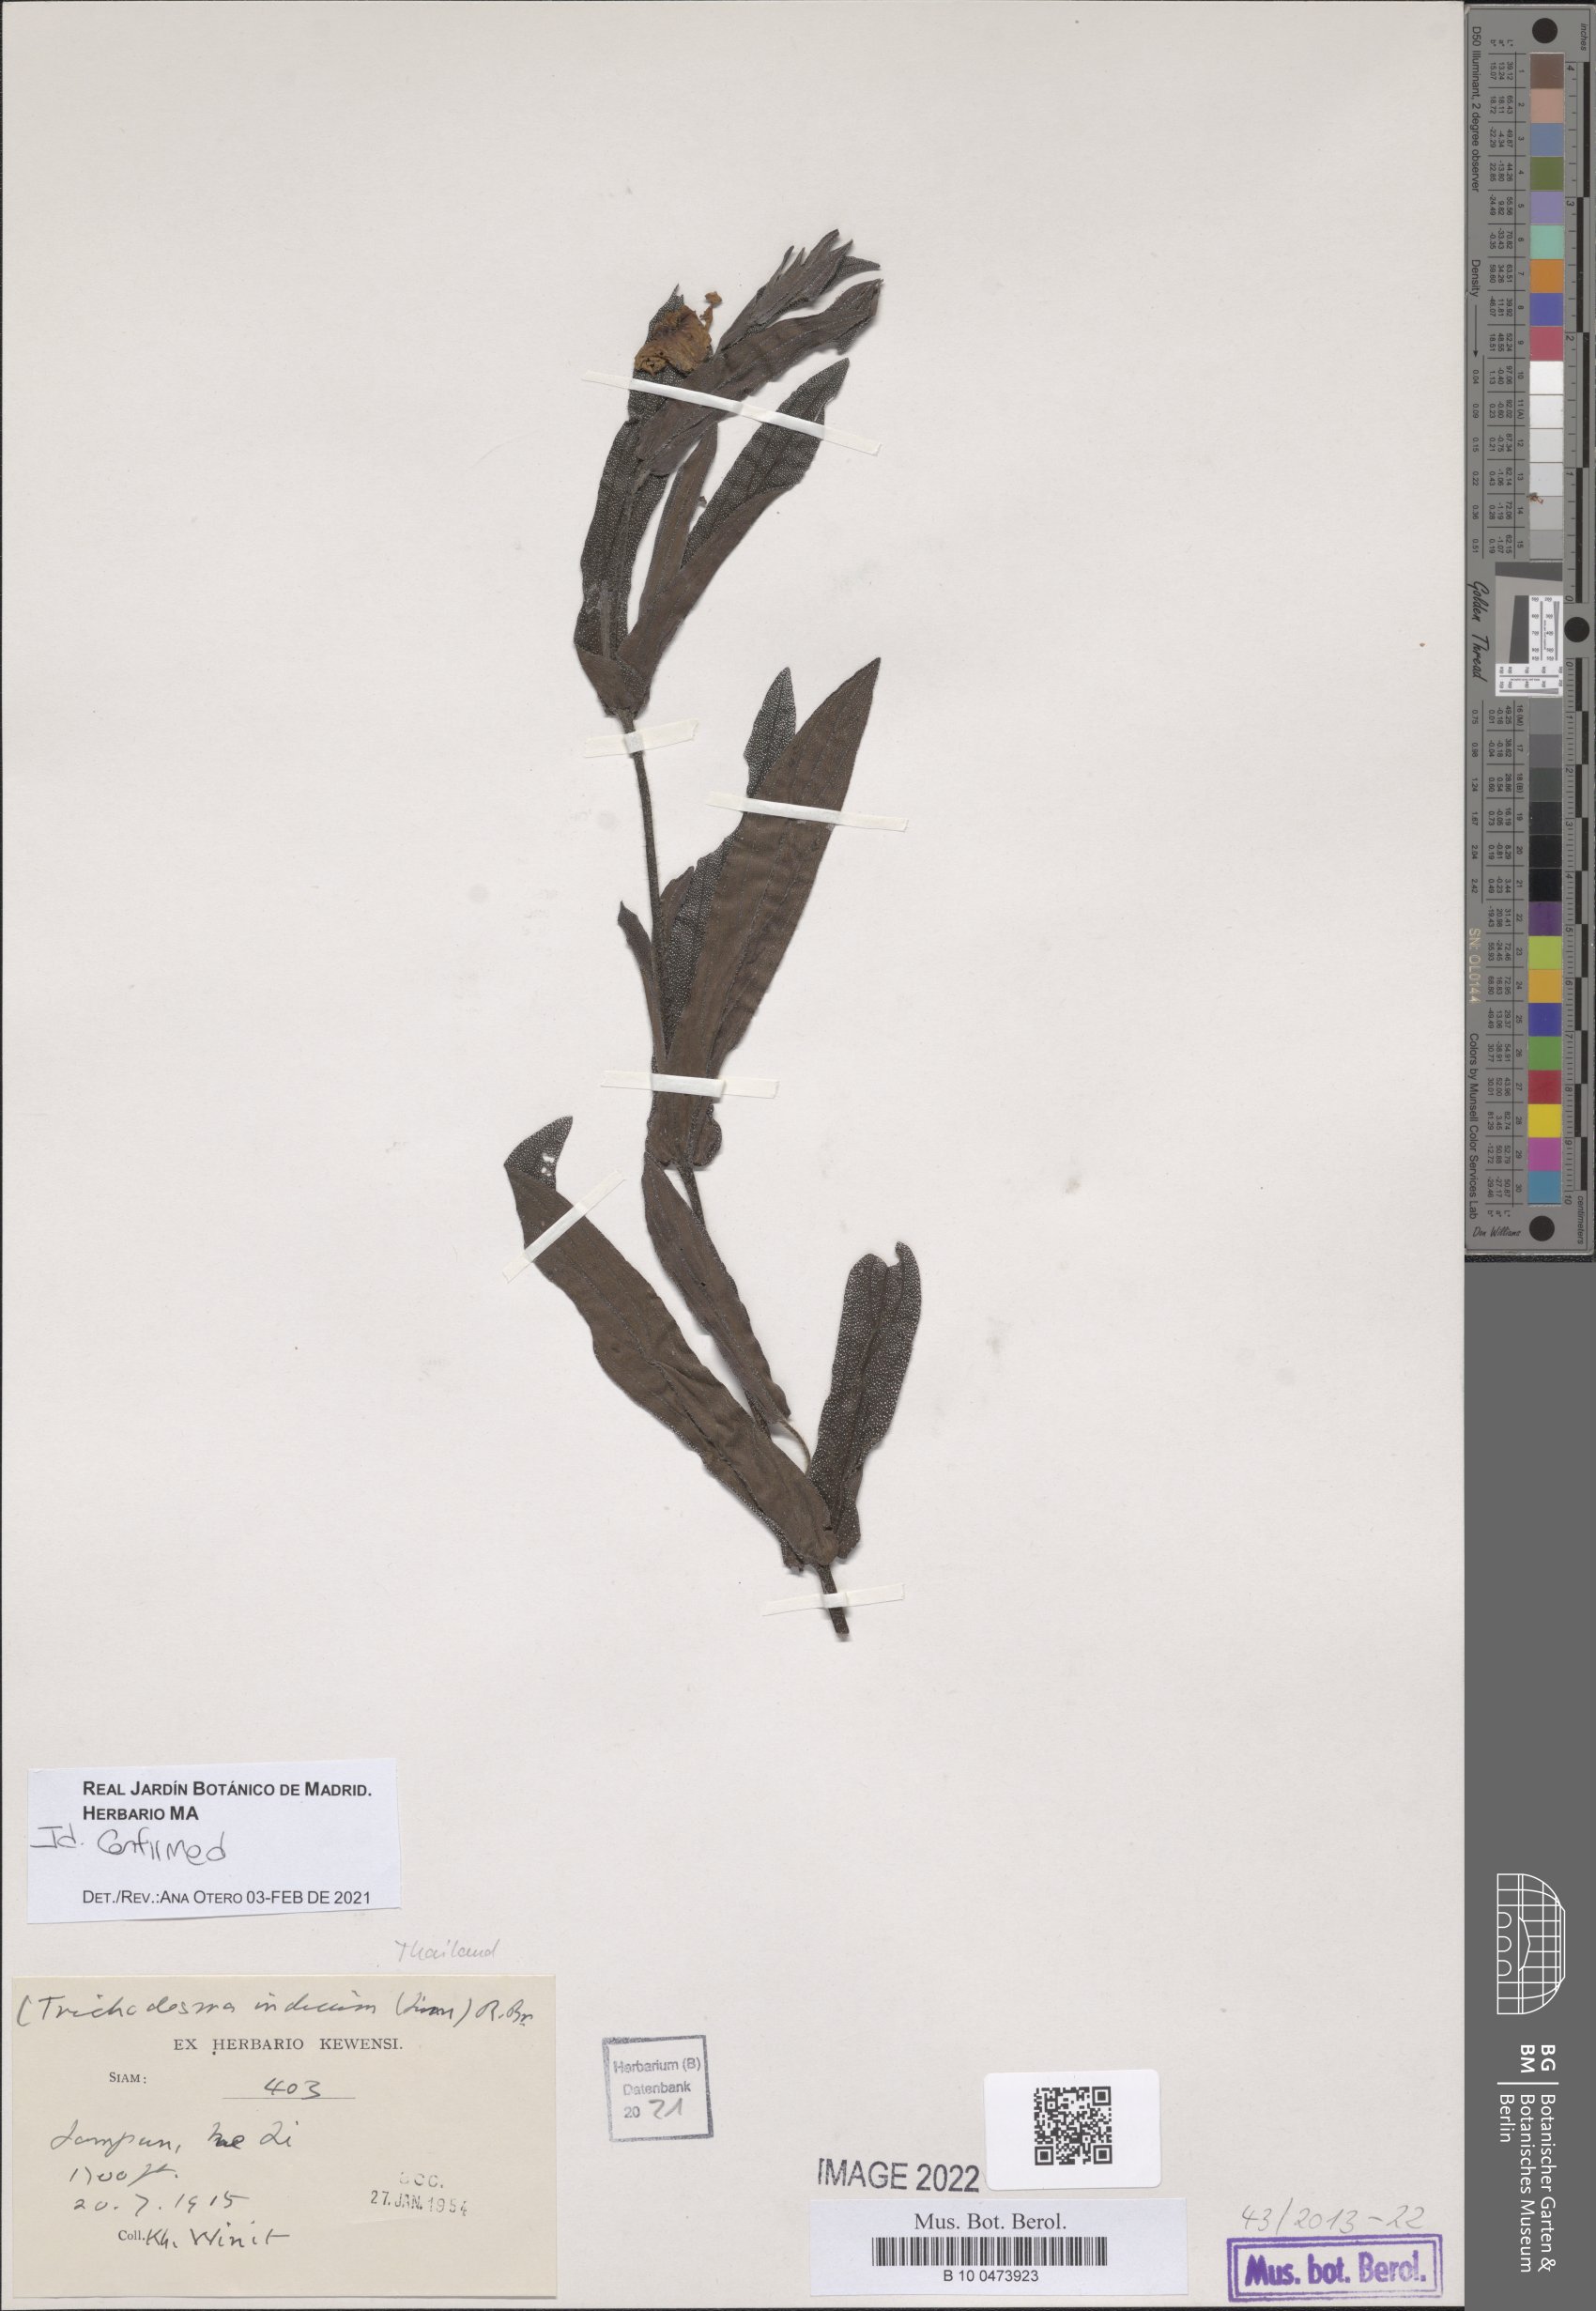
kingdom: Plantae
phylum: Tracheophyta
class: Magnoliopsida
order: Boraginales
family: Boraginaceae
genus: Trichodesma
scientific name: Trichodesma indicum
